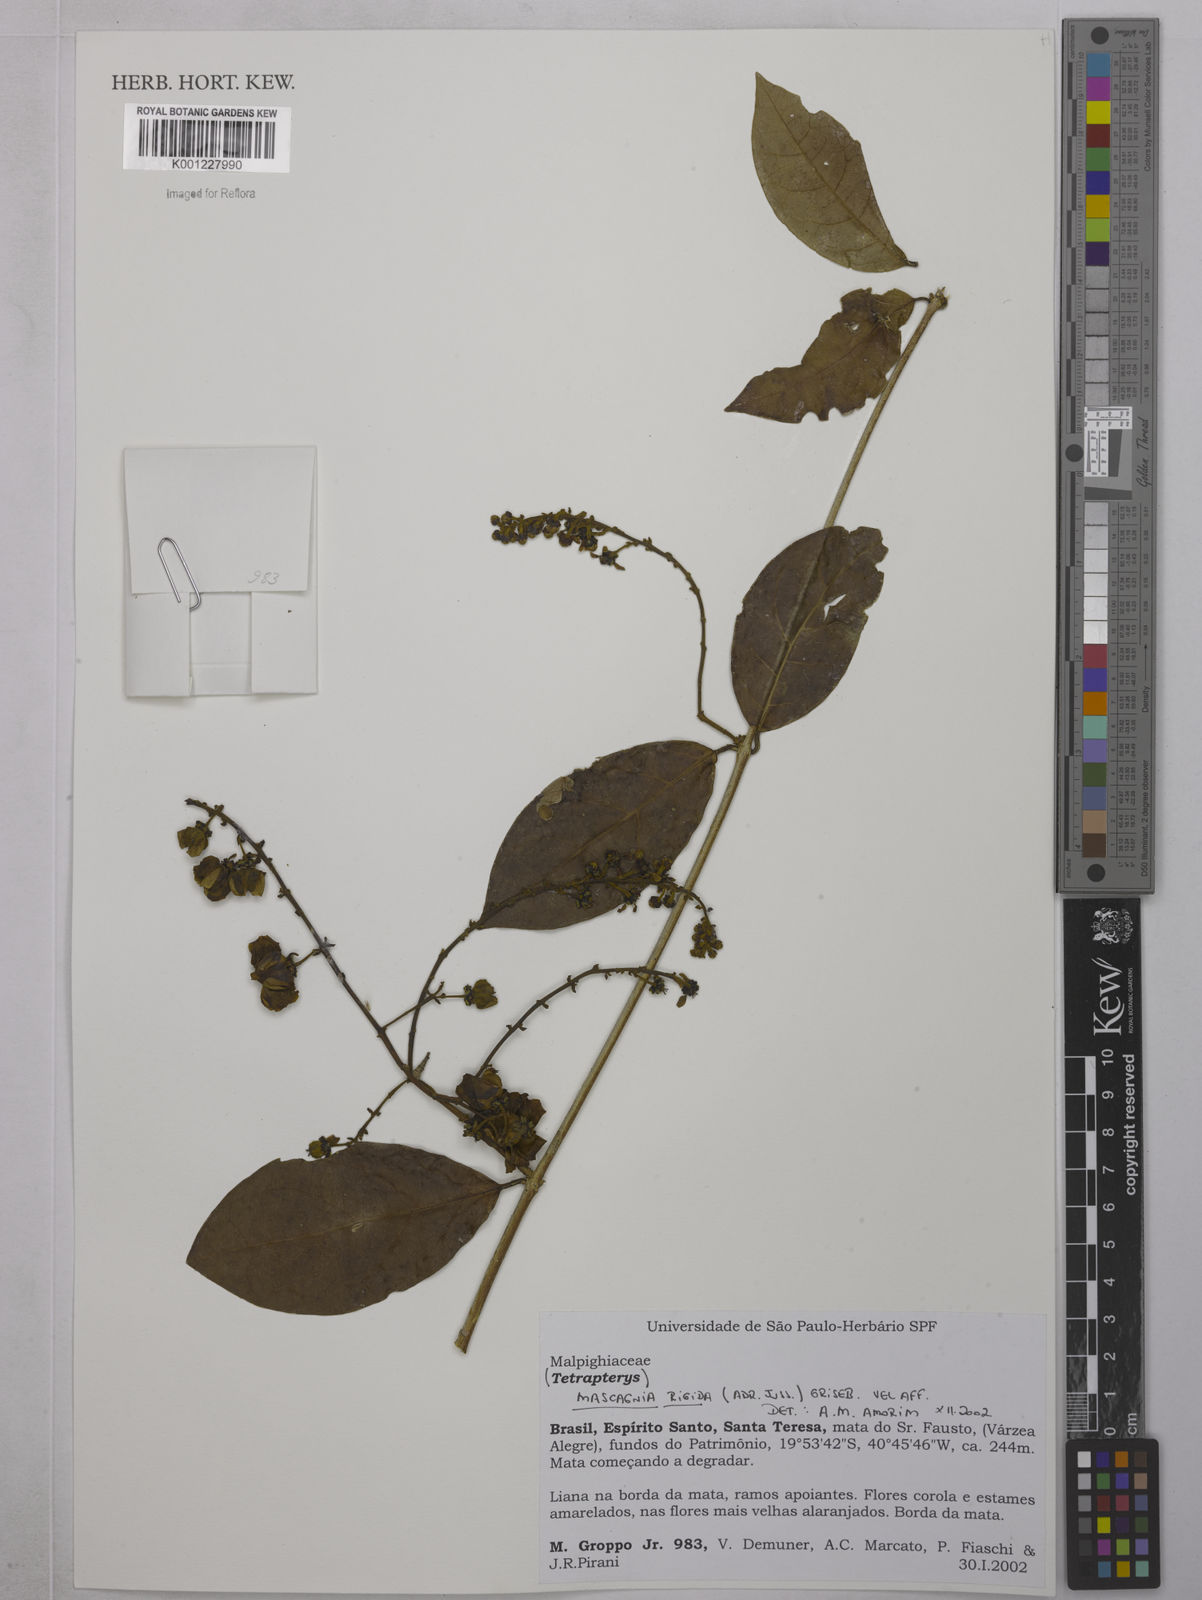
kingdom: Plantae
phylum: Tracheophyta
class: Magnoliopsida
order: Malpighiales
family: Malpighiaceae
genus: Amorimia
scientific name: Amorimia rigida
